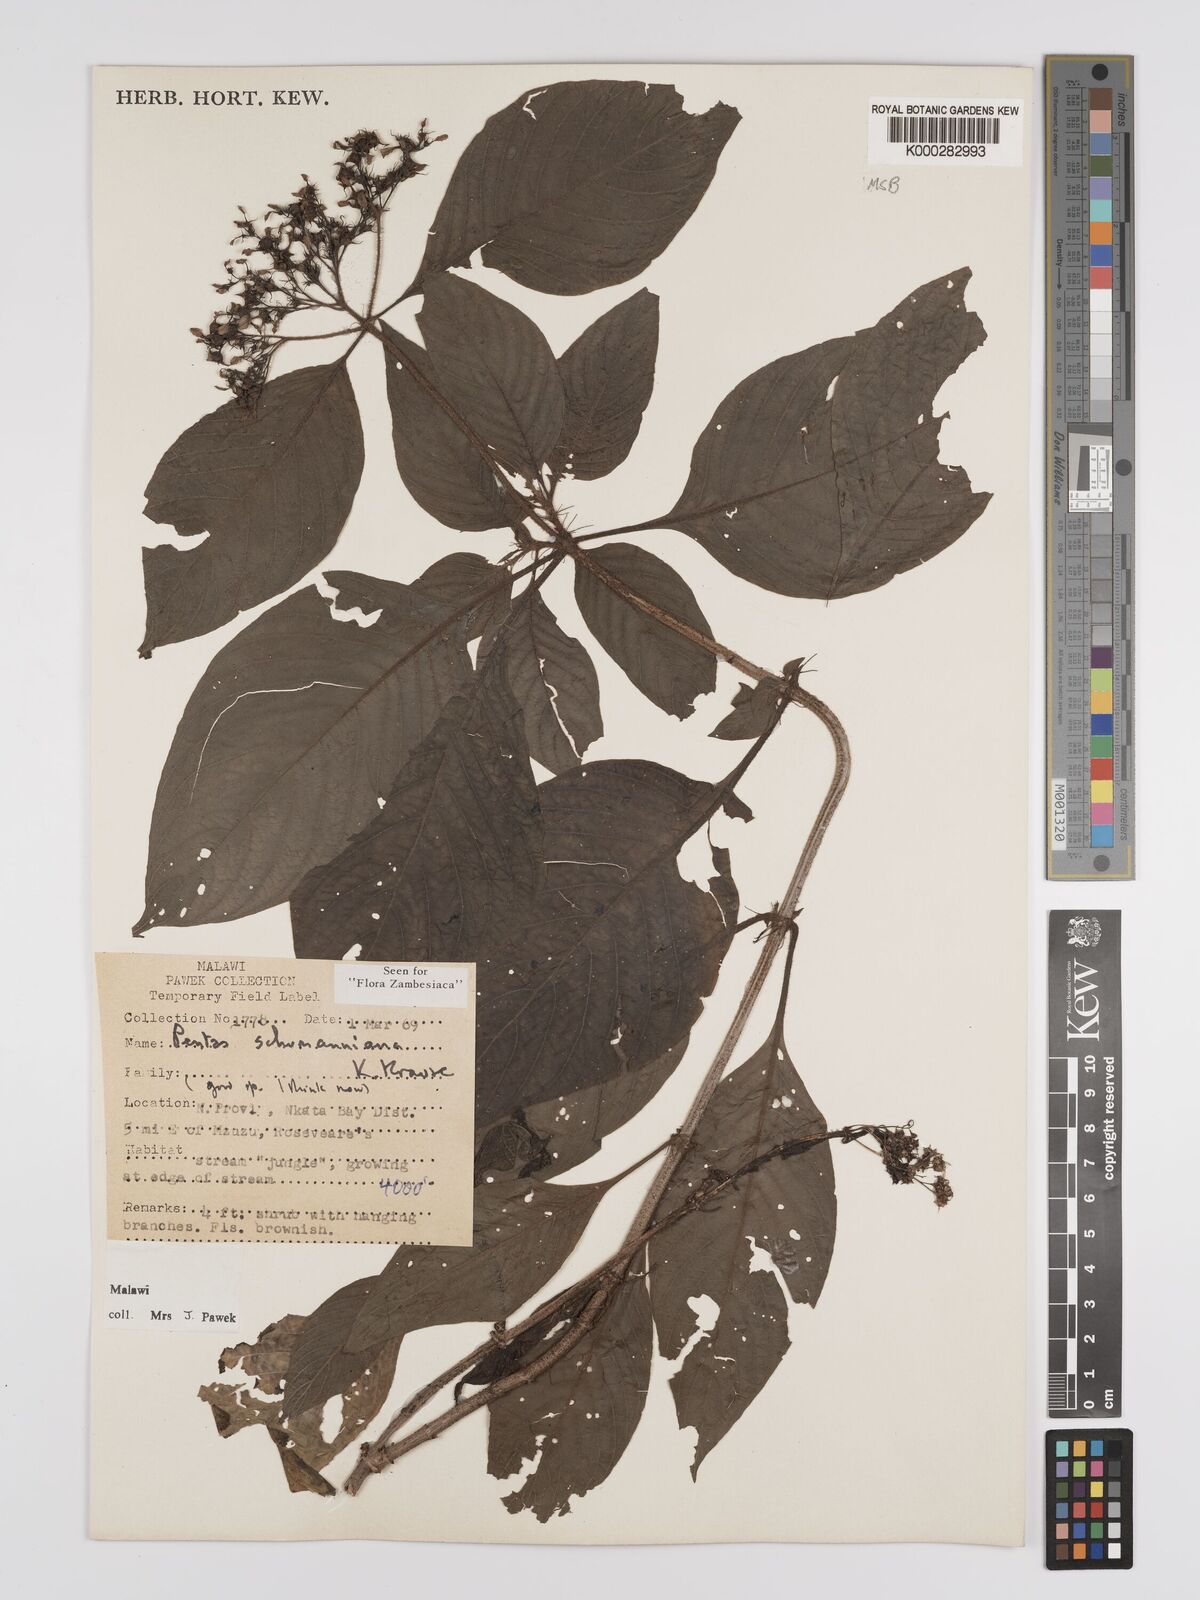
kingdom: Plantae
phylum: Tracheophyta
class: Magnoliopsida
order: Gentianales
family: Rubiaceae
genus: Phyllopentas
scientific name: Phyllopentas schumanniana
